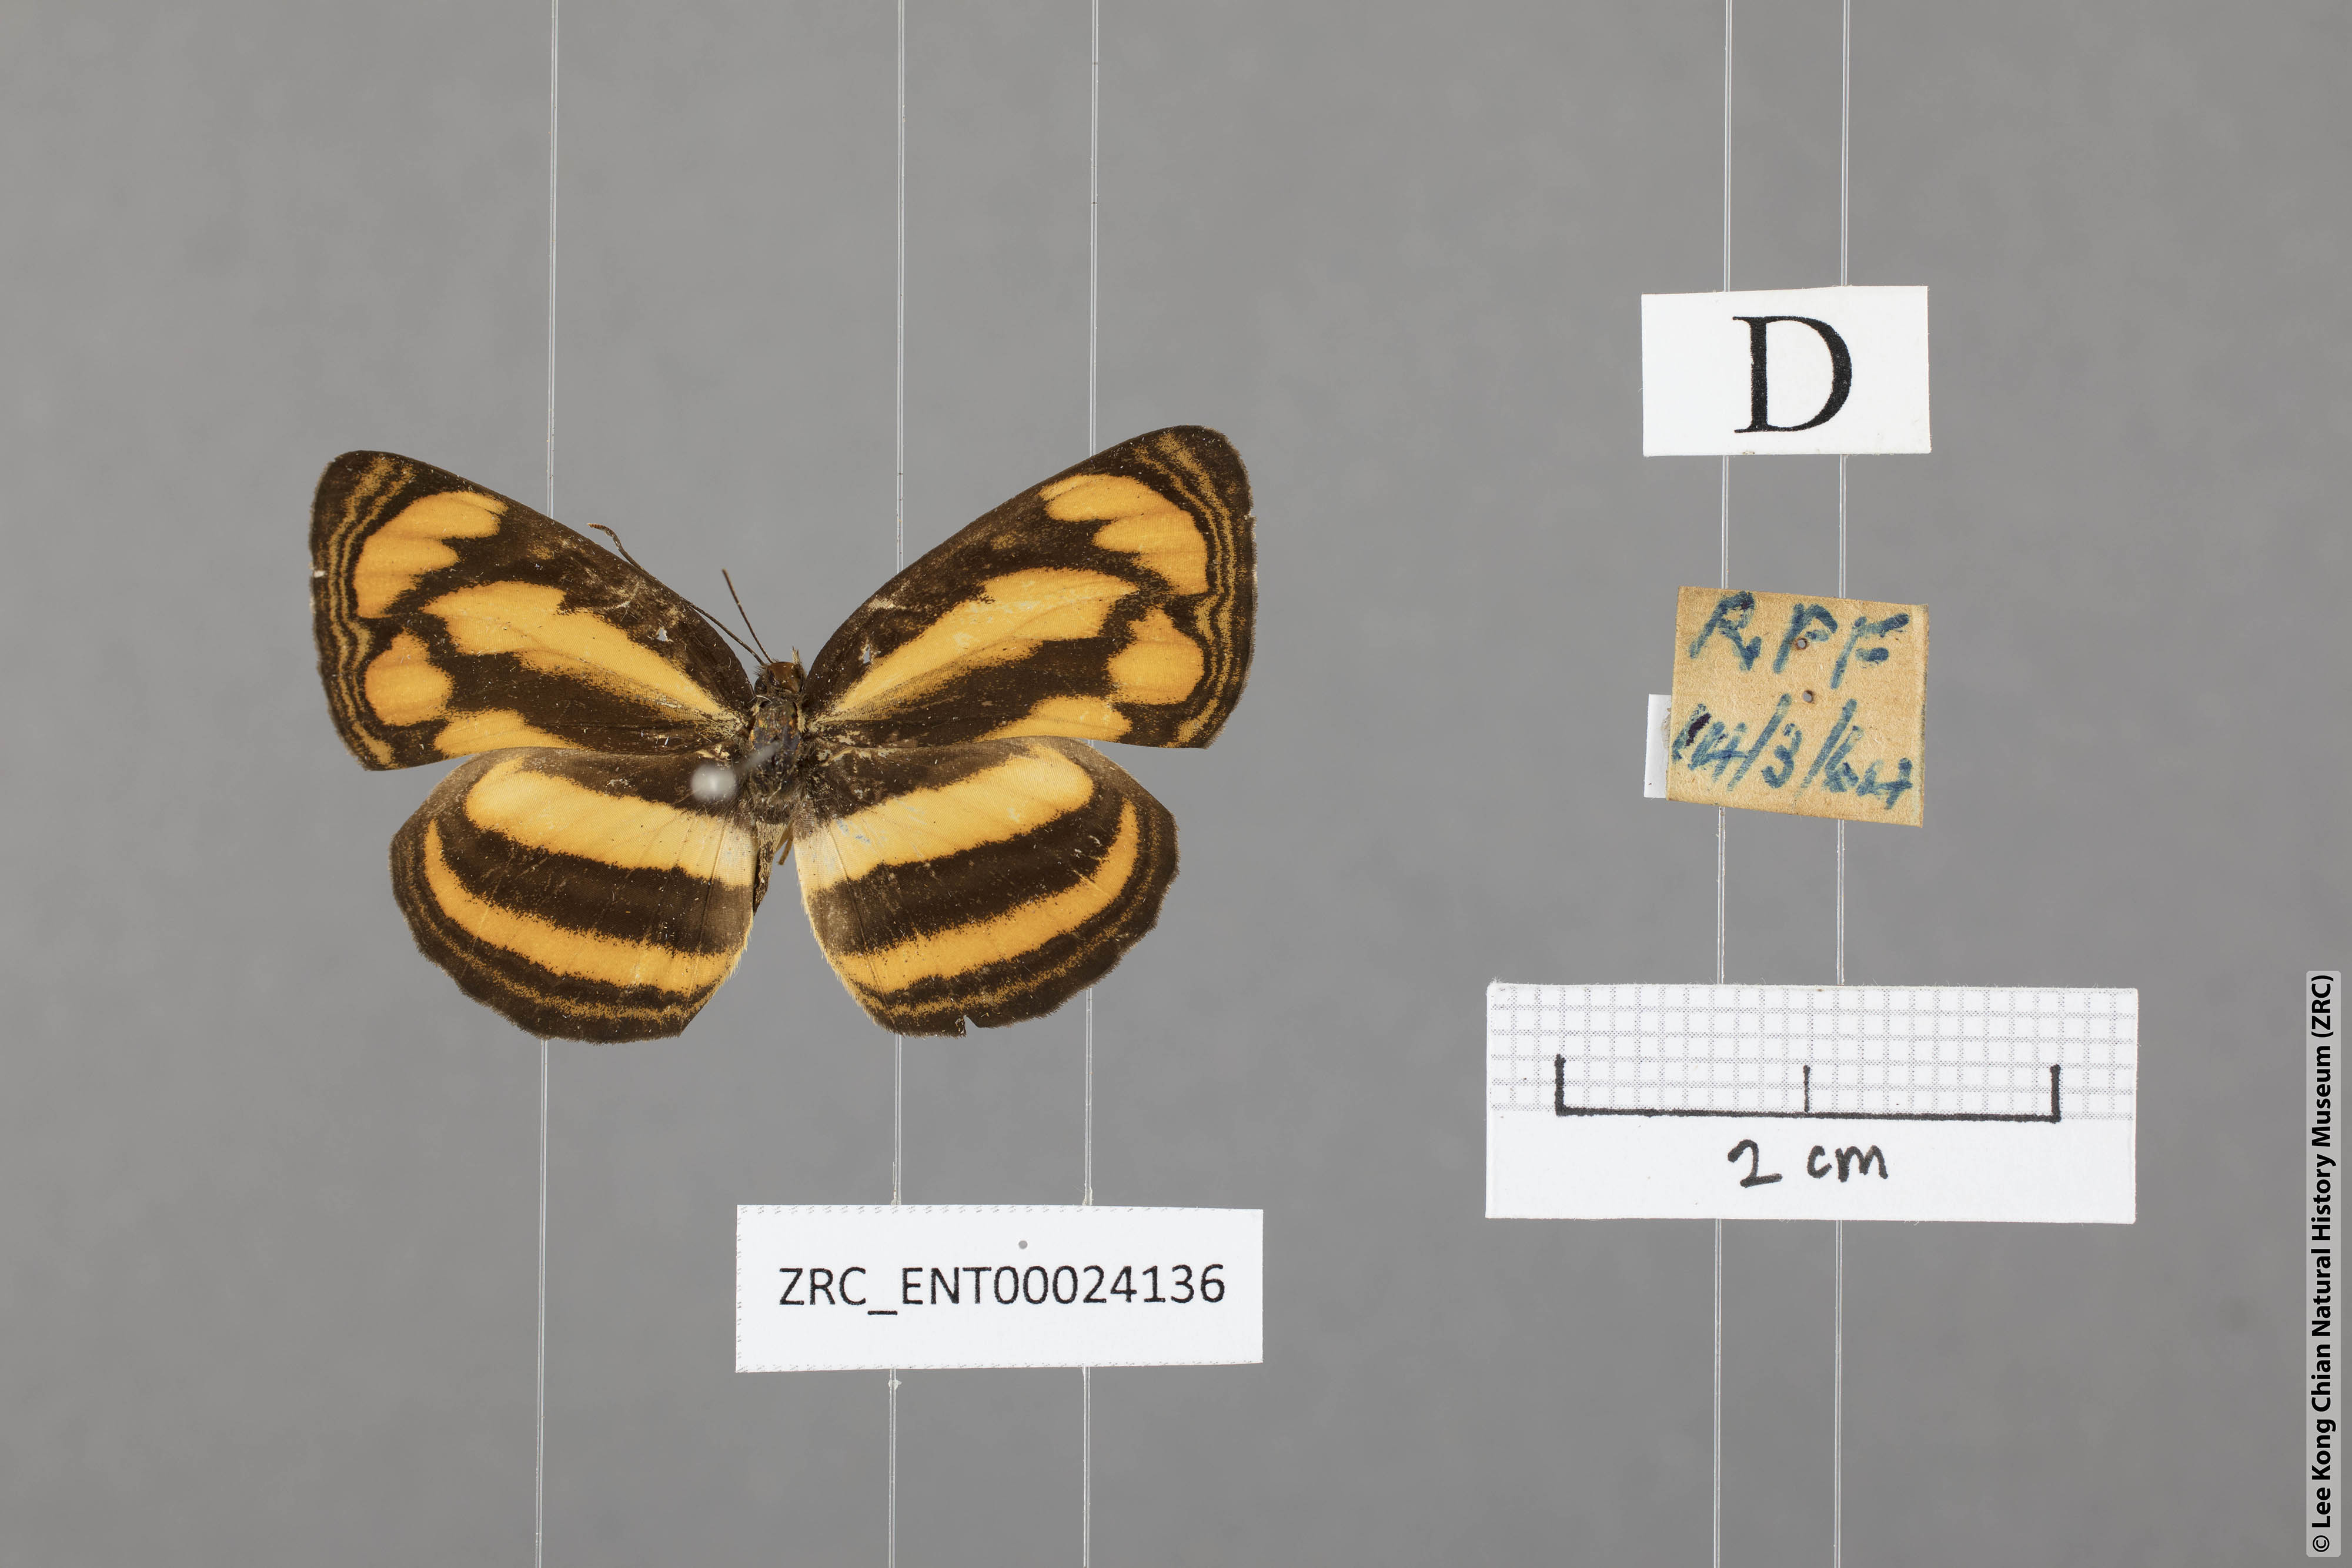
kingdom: Animalia
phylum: Arthropoda
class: Insecta
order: Lepidoptera
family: Nymphalidae
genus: Pantoporia
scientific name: Pantoporia paraka
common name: Perak lascar
